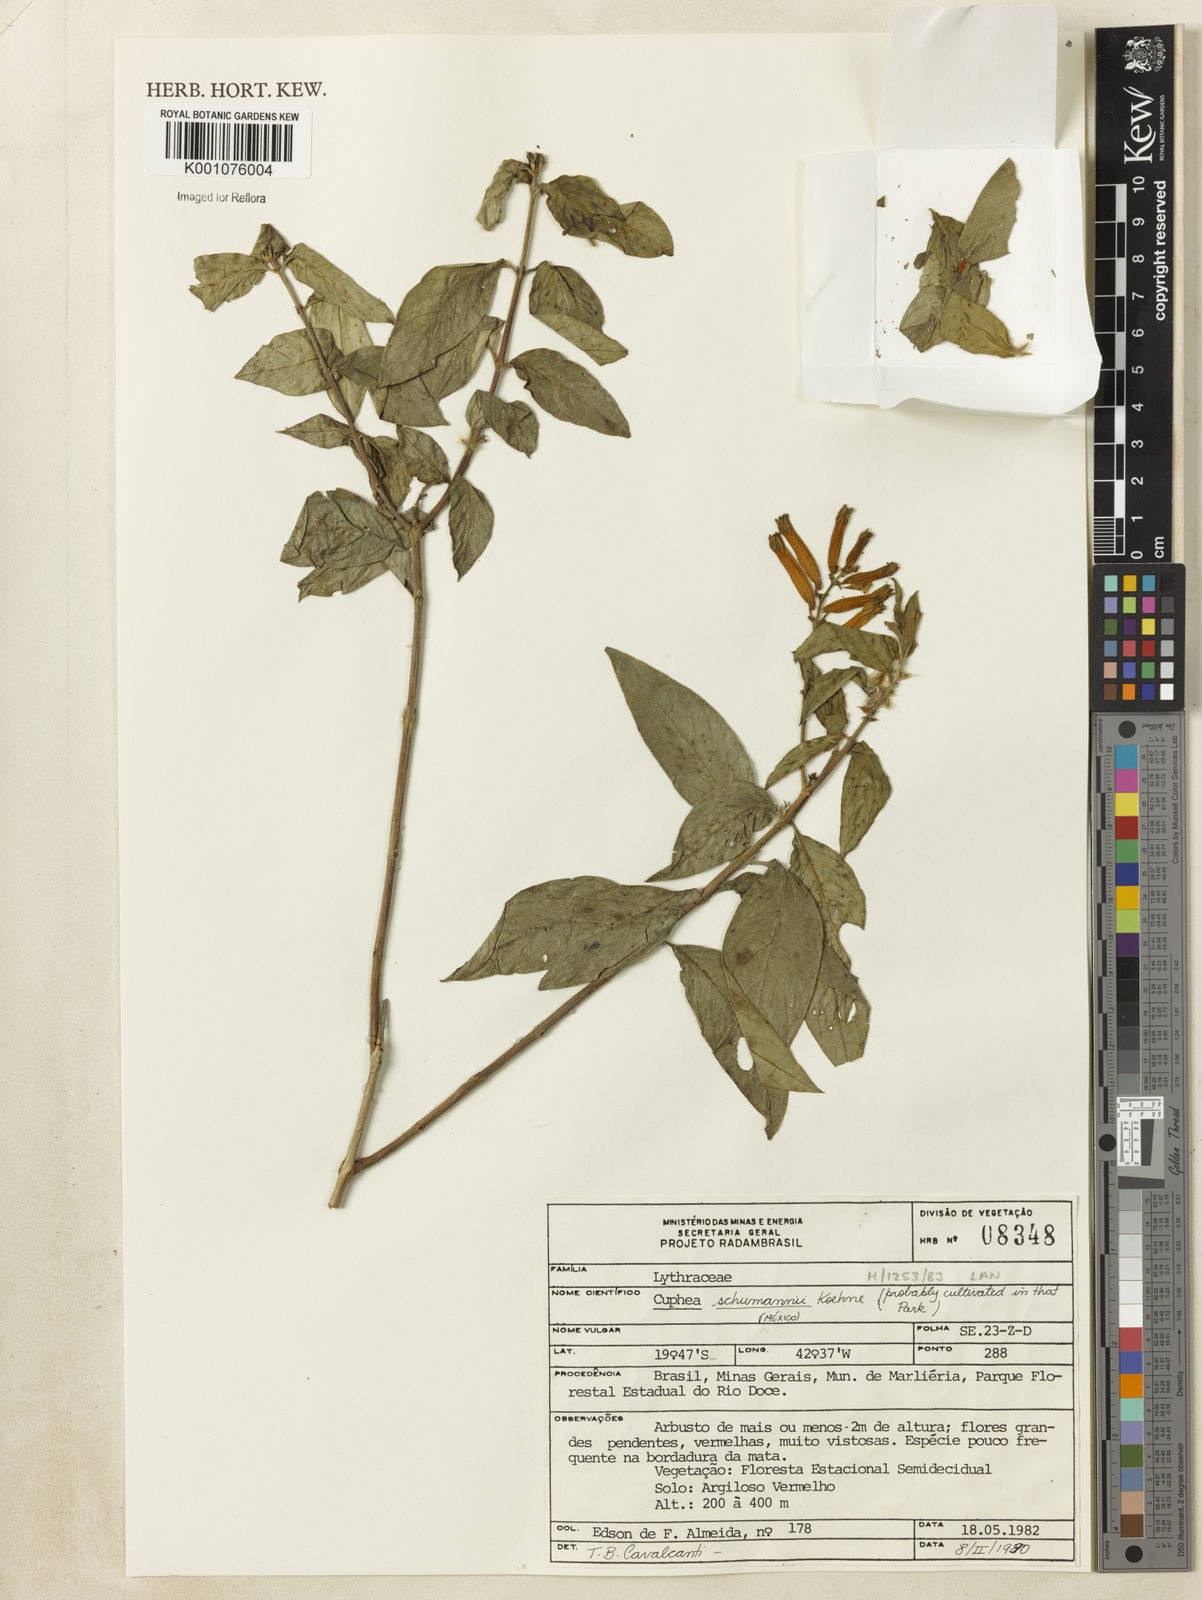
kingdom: Plantae
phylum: Tracheophyta
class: Magnoliopsida
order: Myrtales
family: Lythraceae
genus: Cuphea
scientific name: Cuphea schumannii
